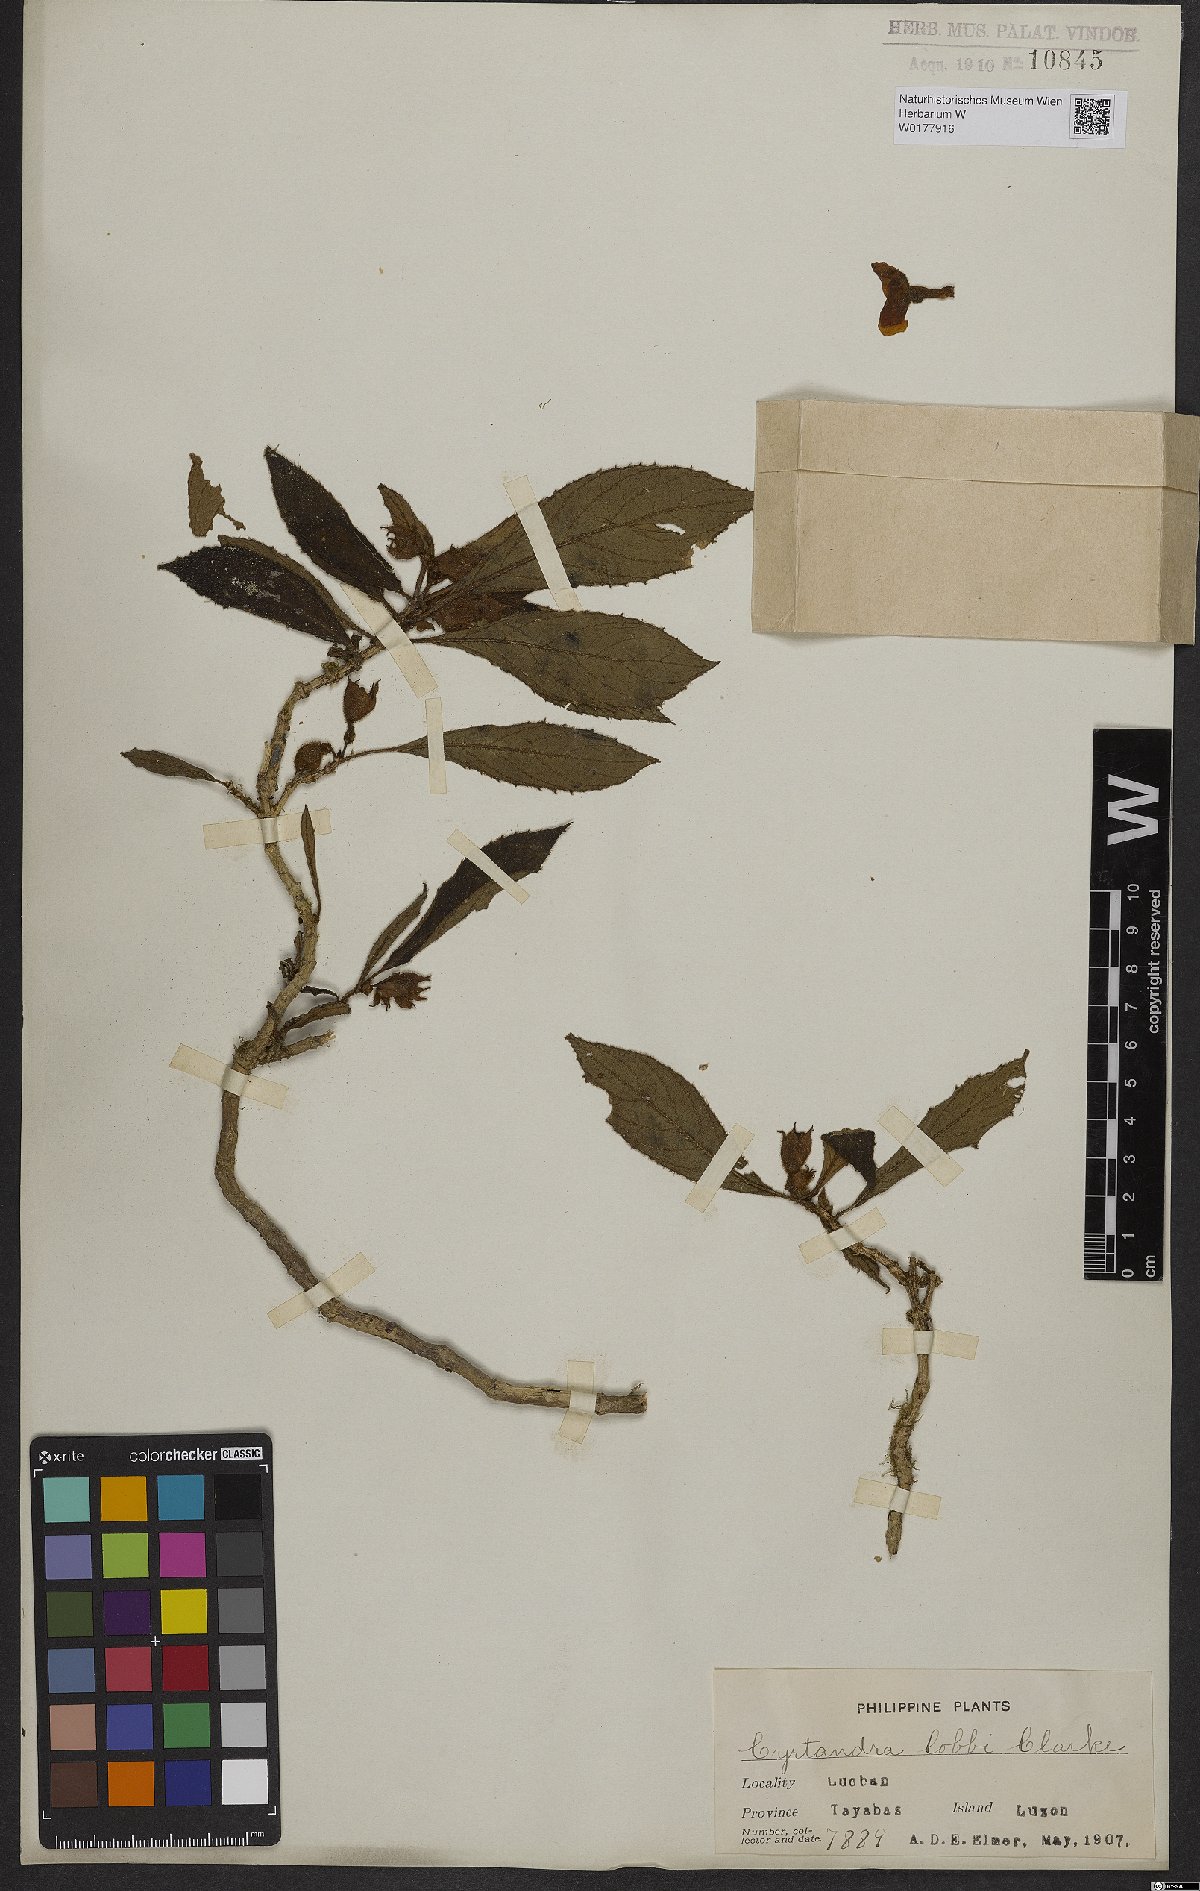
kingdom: Plantae
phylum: Tracheophyta
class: Magnoliopsida
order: Lamiales
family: Gesneriaceae
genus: Cyrtandra
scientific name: Cyrtandra
